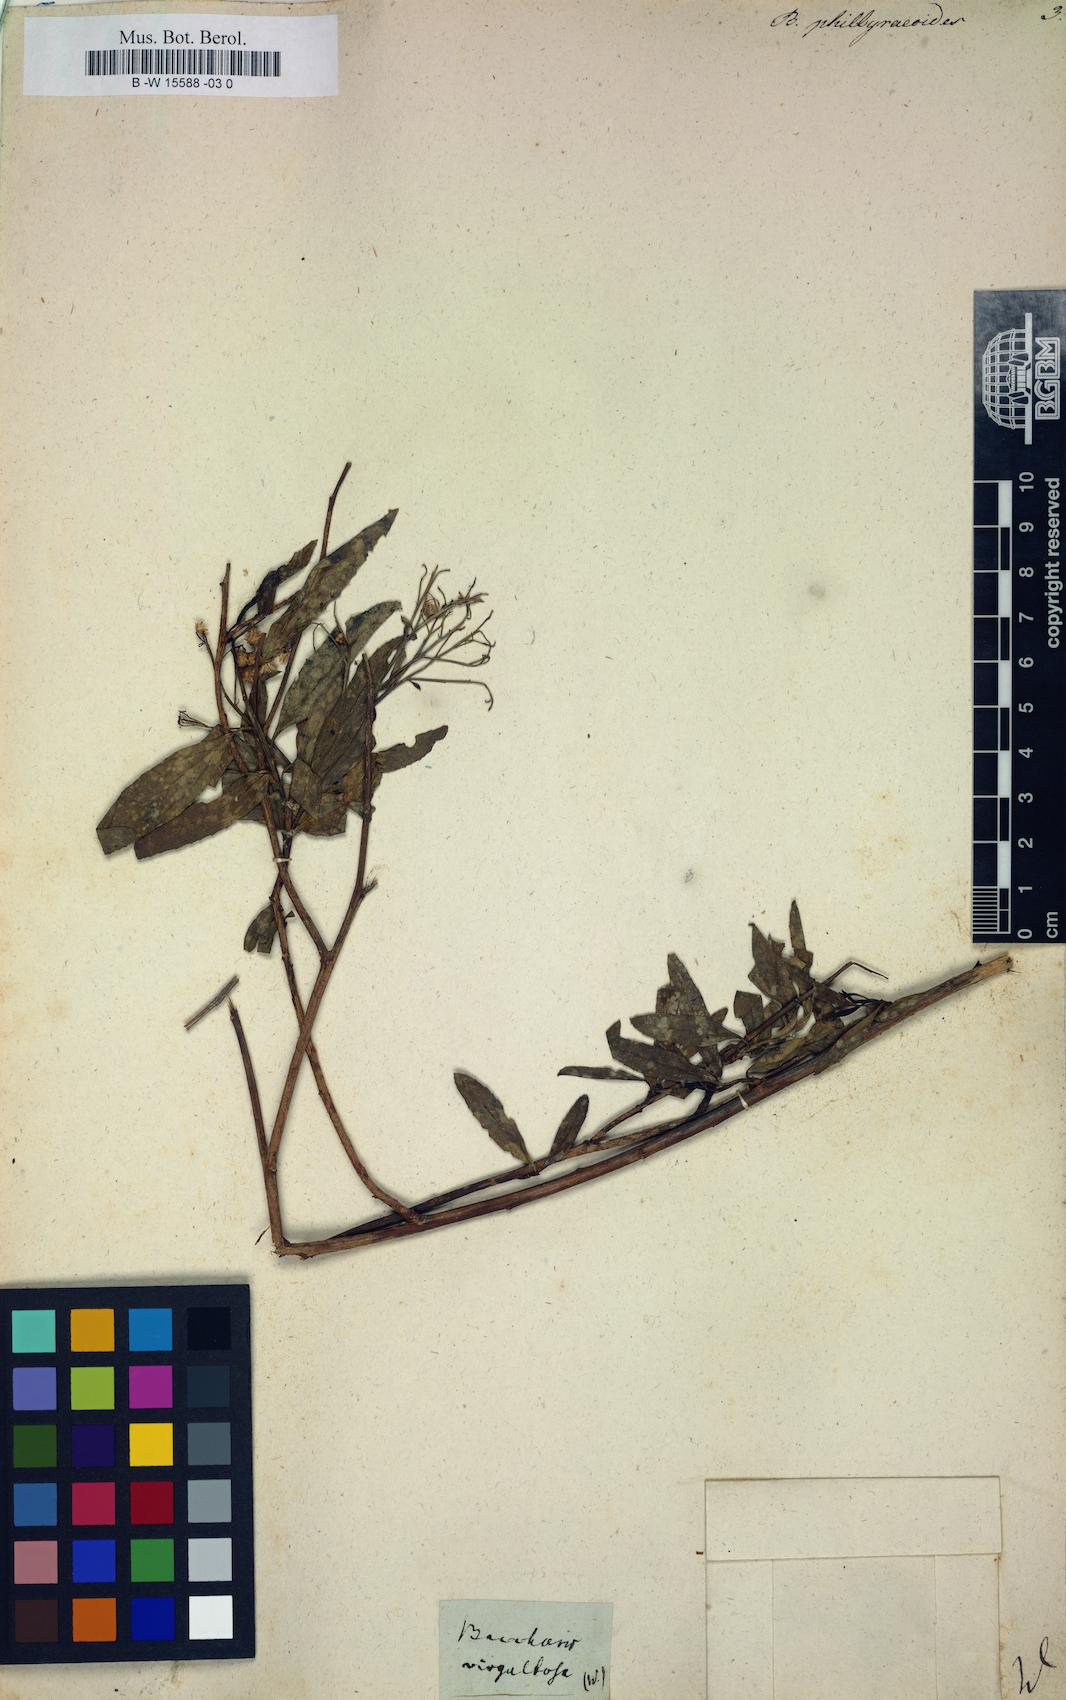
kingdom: Plantae
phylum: Tracheophyta
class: Magnoliopsida
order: Asterales
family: Asteraceae
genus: Baccharis
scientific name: Baccharis
